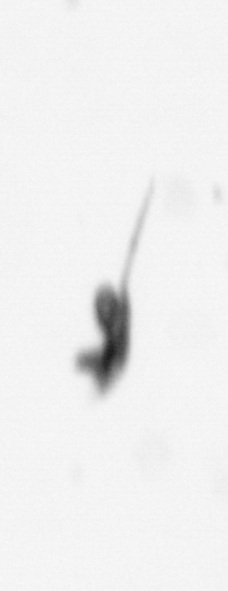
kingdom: Animalia
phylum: Arthropoda
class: Copepoda
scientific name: Copepoda
